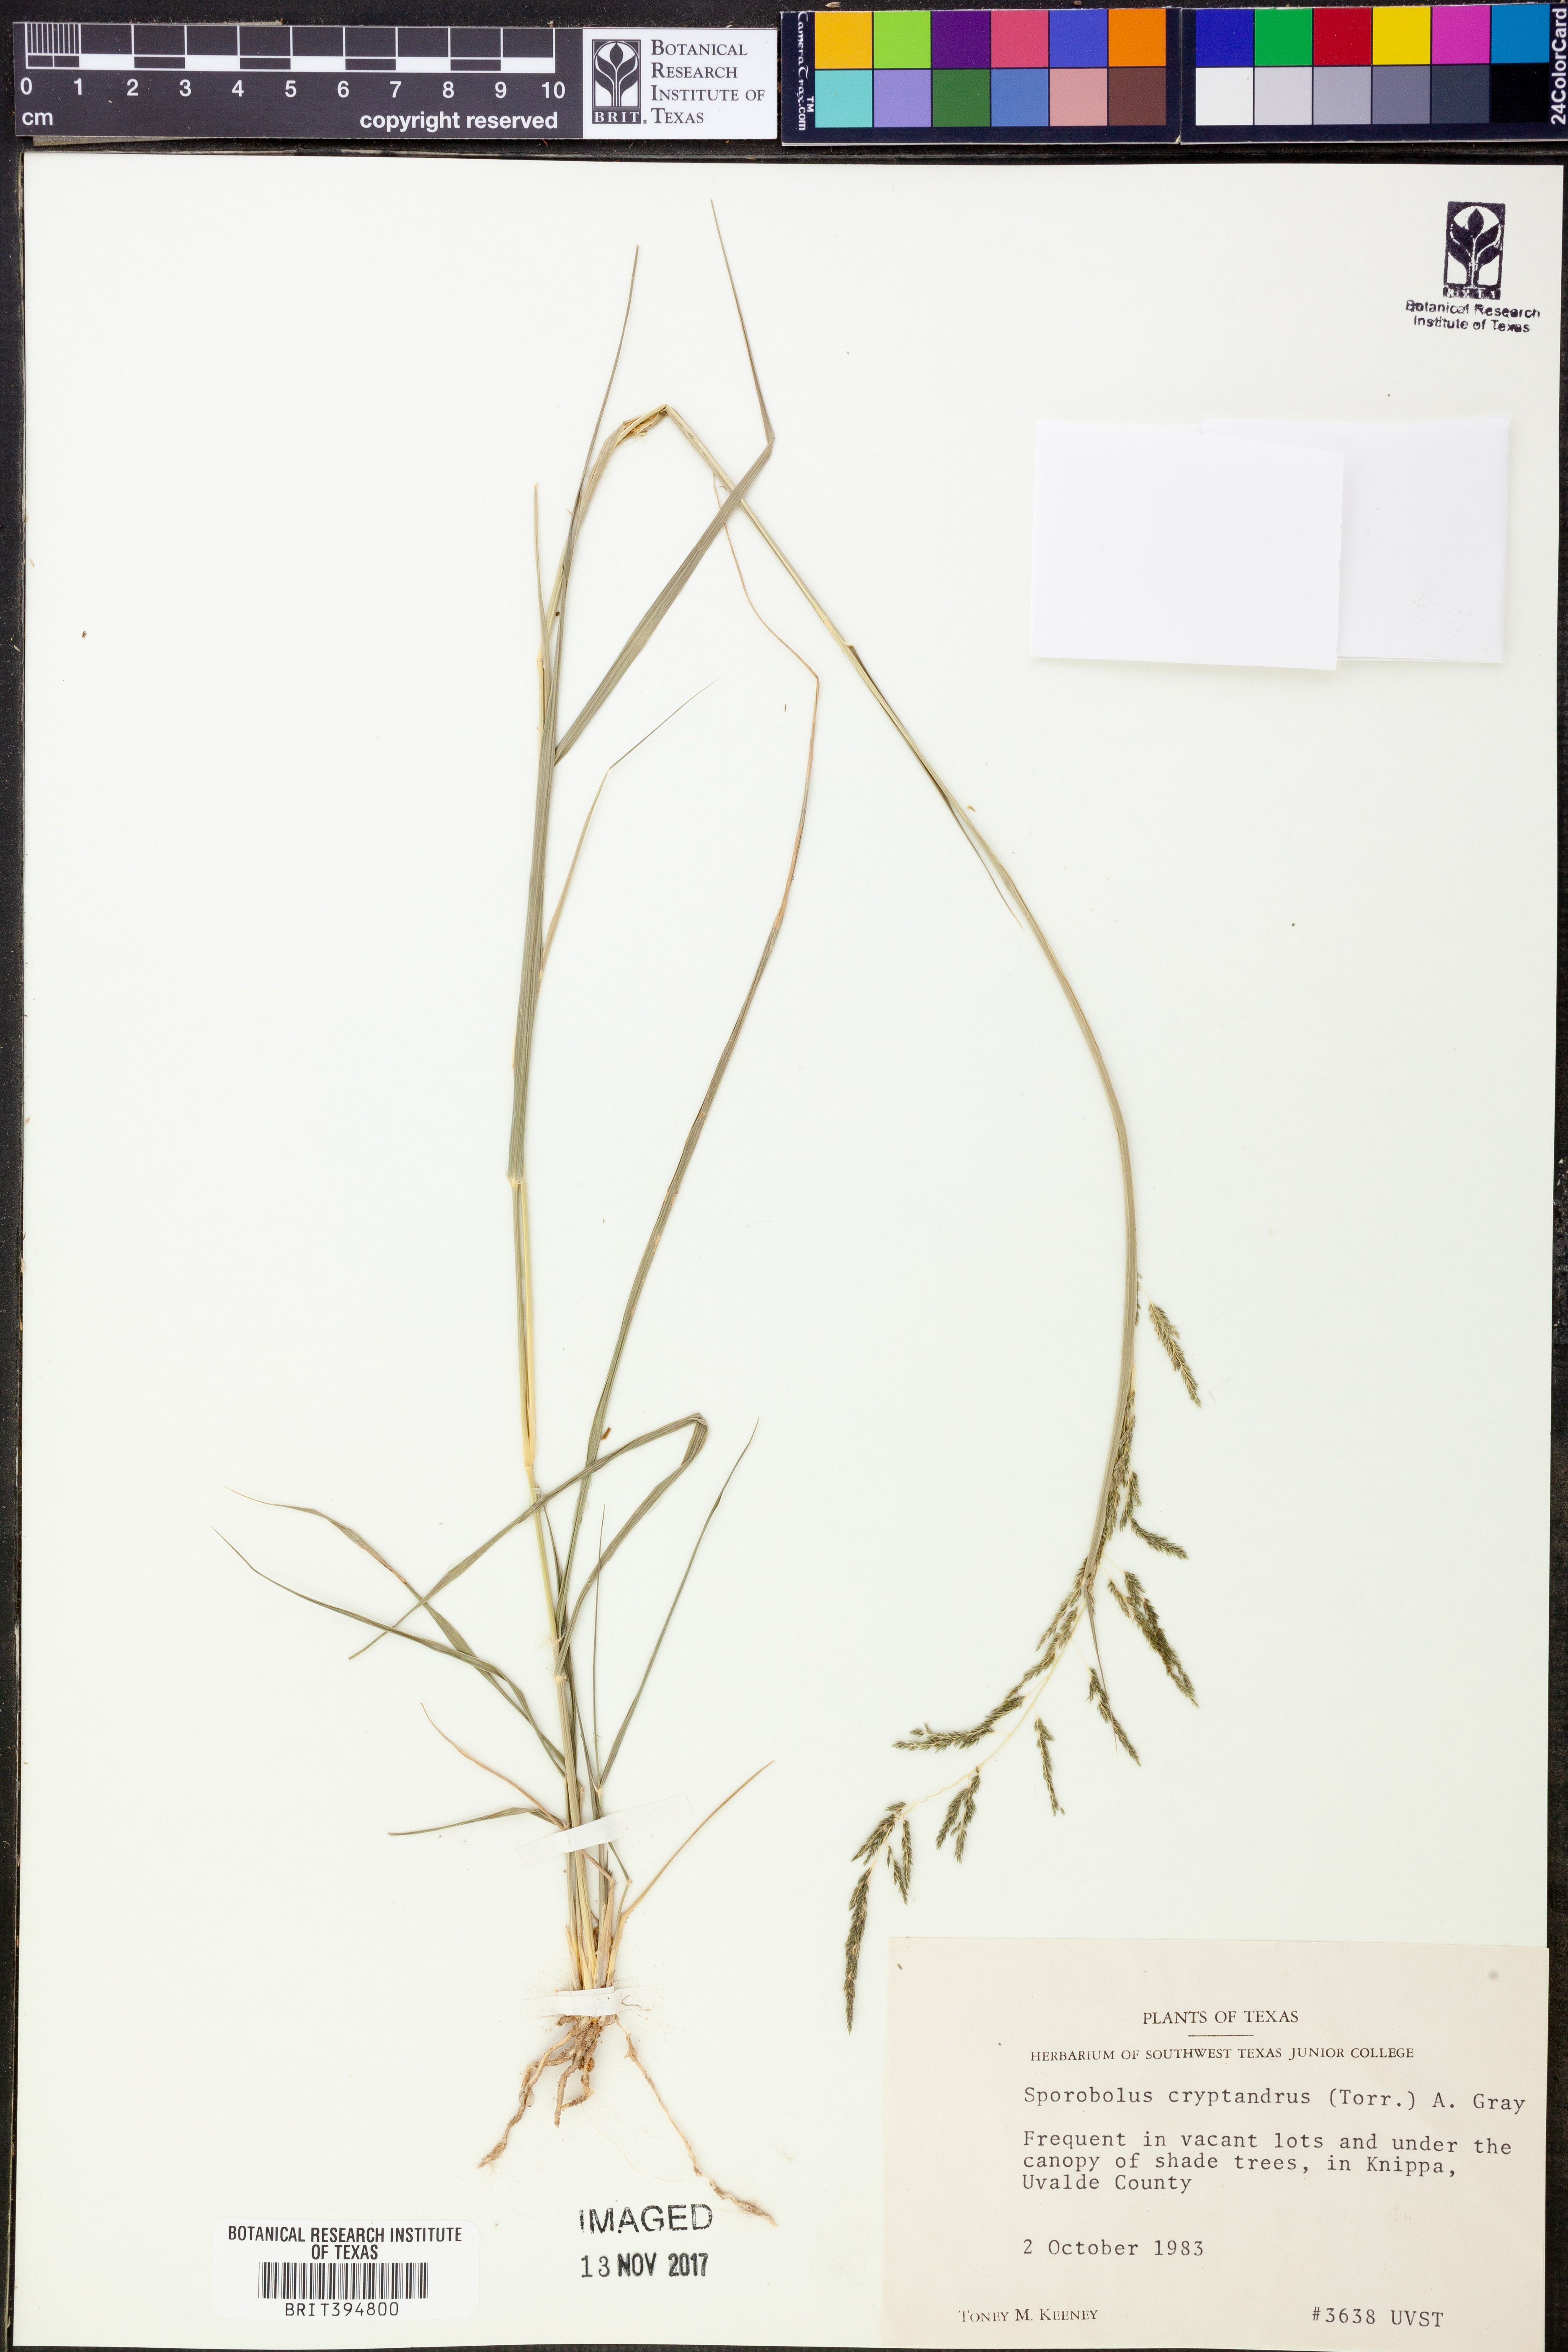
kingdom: Plantae
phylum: Tracheophyta
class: Liliopsida
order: Poales
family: Poaceae
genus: Sporobolus
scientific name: Sporobolus cryptandrus
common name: Sand dropseed
